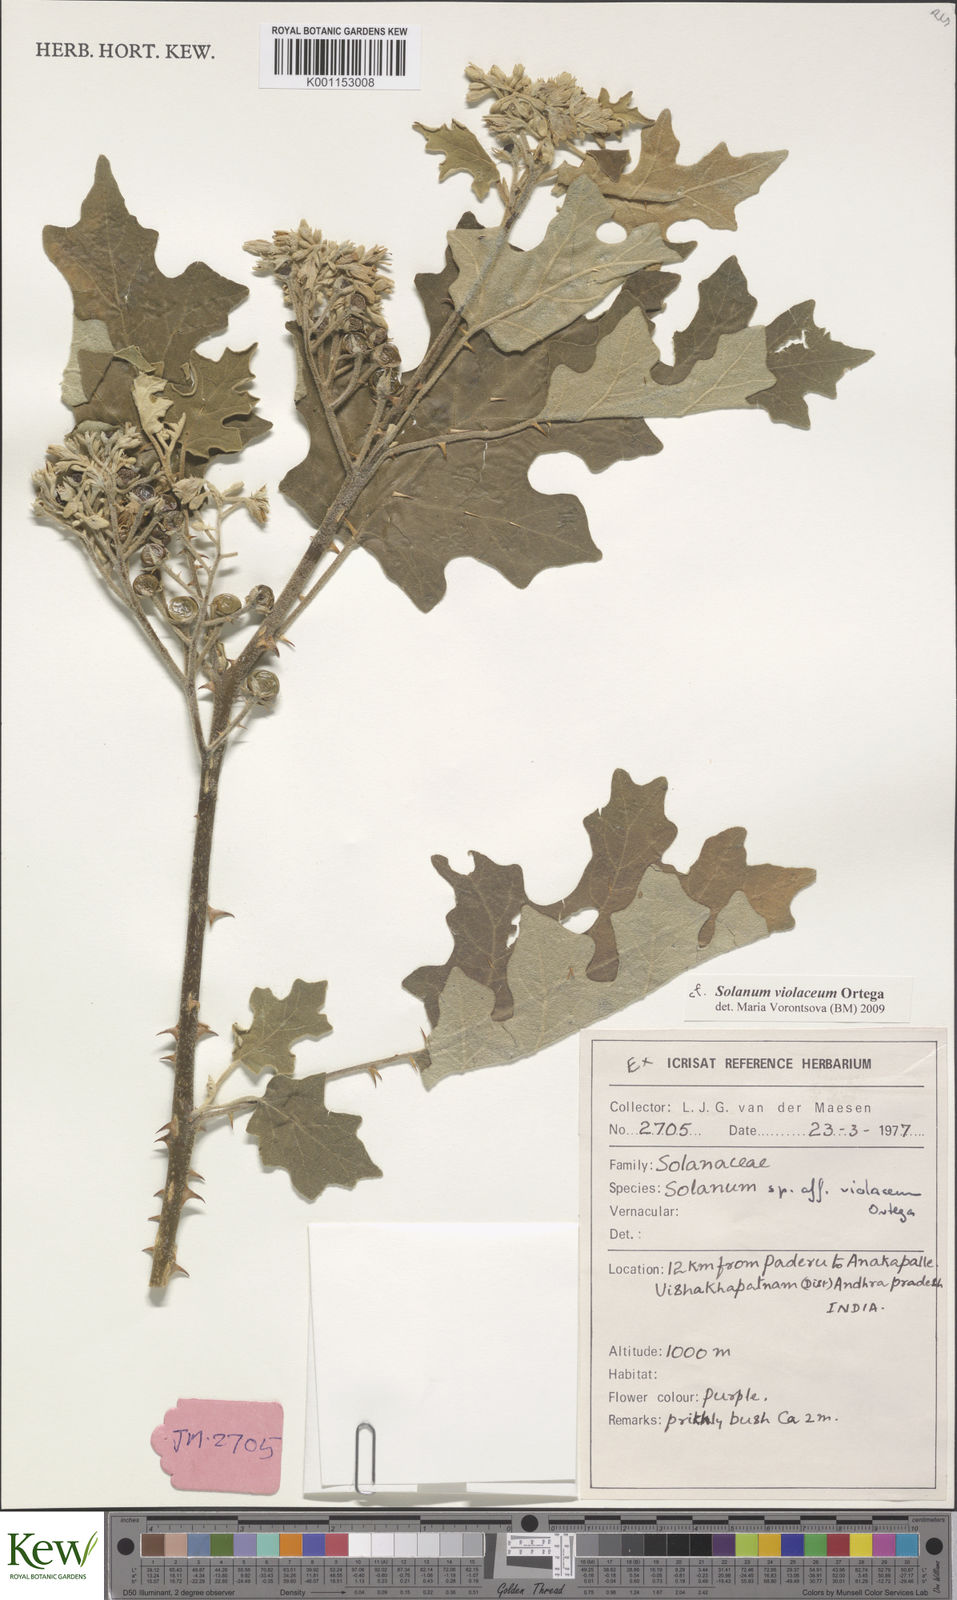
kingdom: Plantae
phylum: Tracheophyta
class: Magnoliopsida
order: Solanales
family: Solanaceae
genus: Solanum
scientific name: Solanum violaceum
